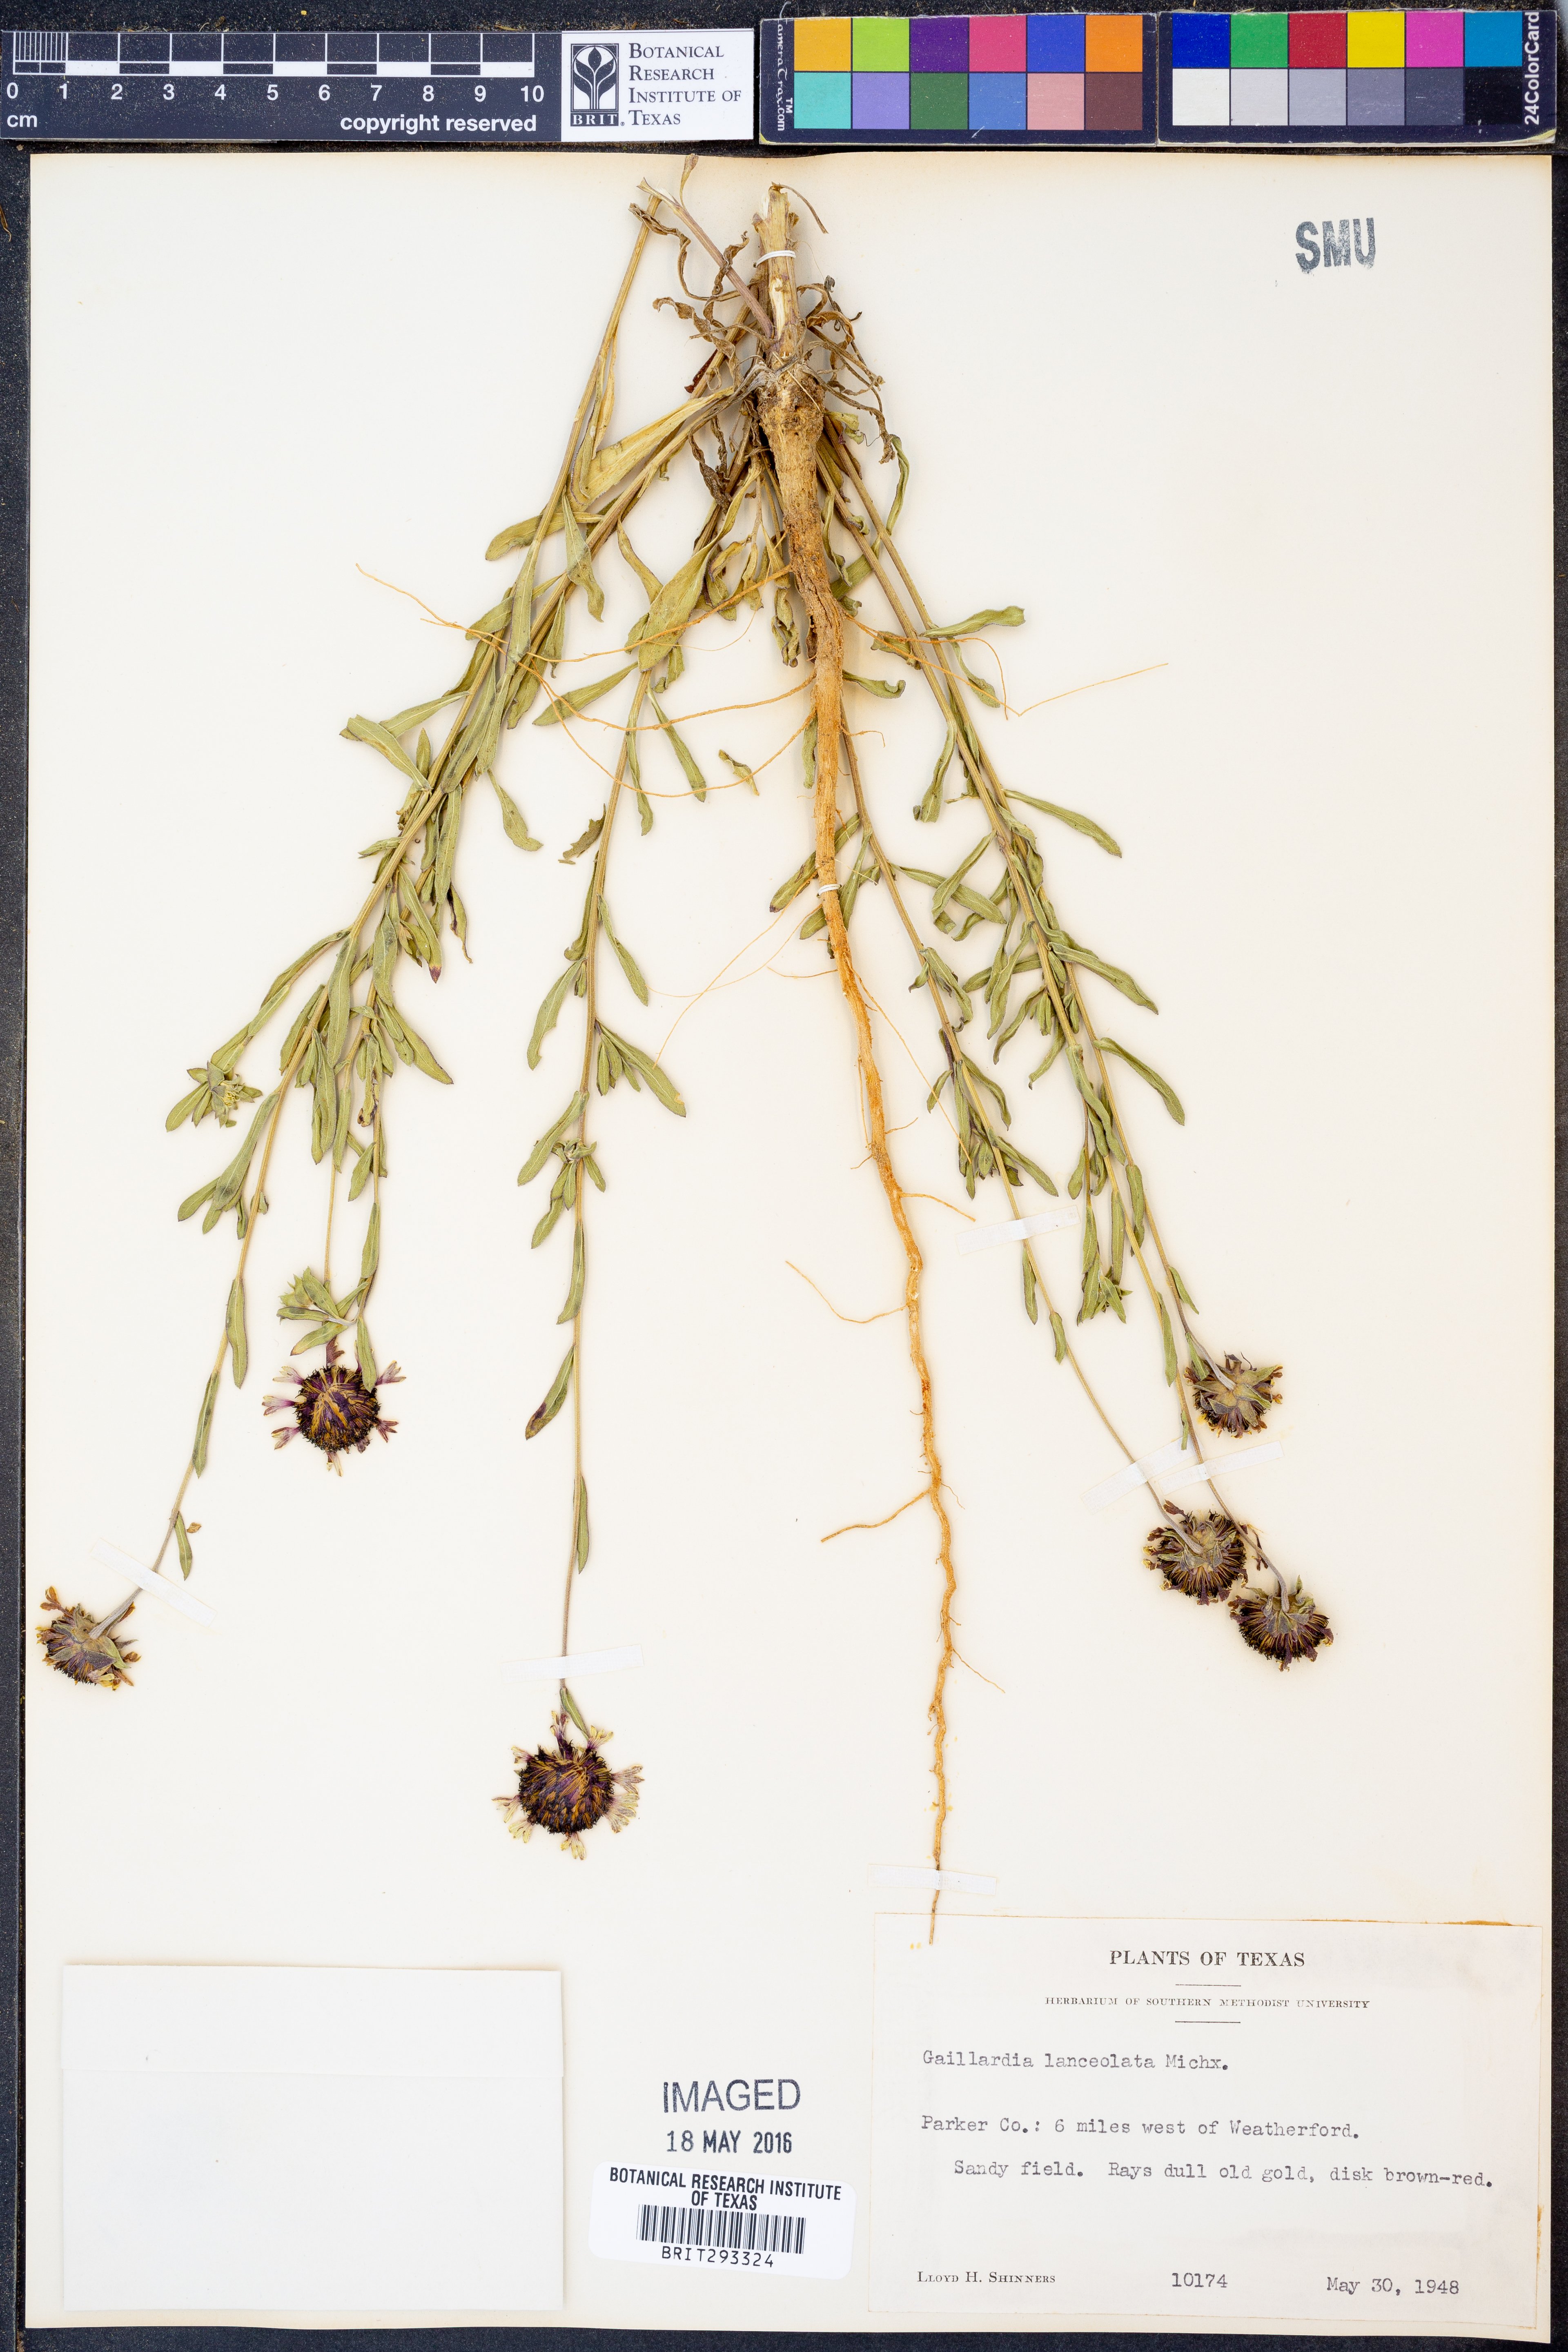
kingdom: Plantae
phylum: Tracheophyta
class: Magnoliopsida
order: Asterales
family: Asteraceae
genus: Gaillardia
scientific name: Gaillardia aestivalis
